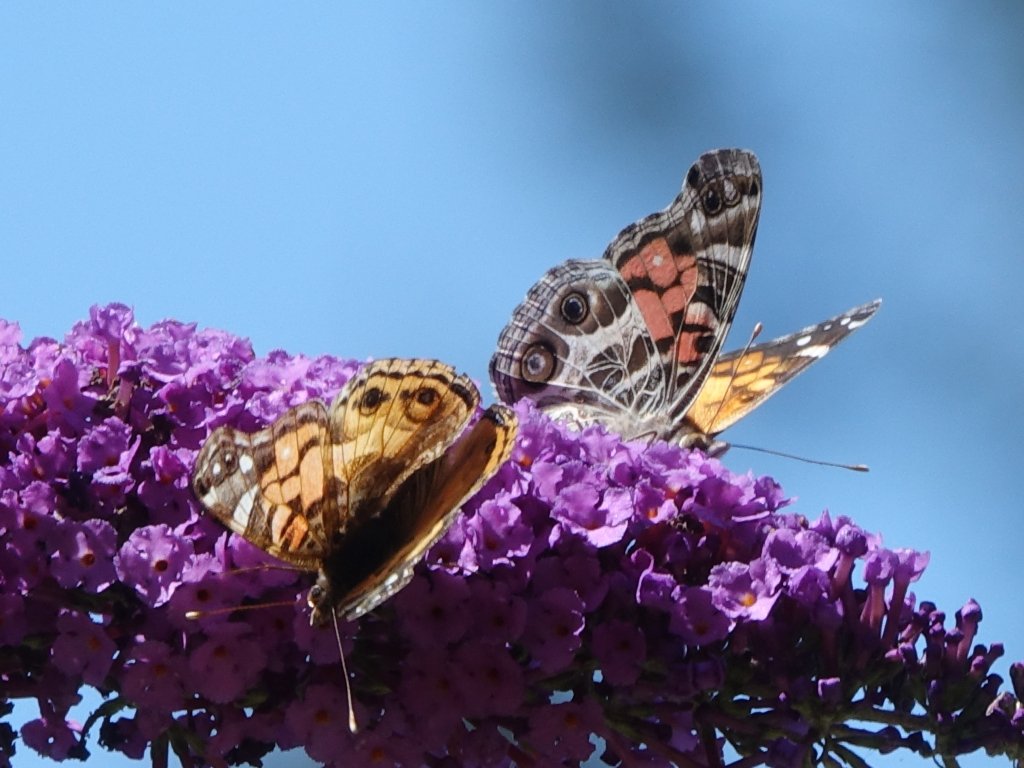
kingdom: Animalia
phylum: Arthropoda
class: Insecta
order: Lepidoptera
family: Nymphalidae
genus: Vanessa
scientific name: Vanessa virginiensis
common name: American Lady
